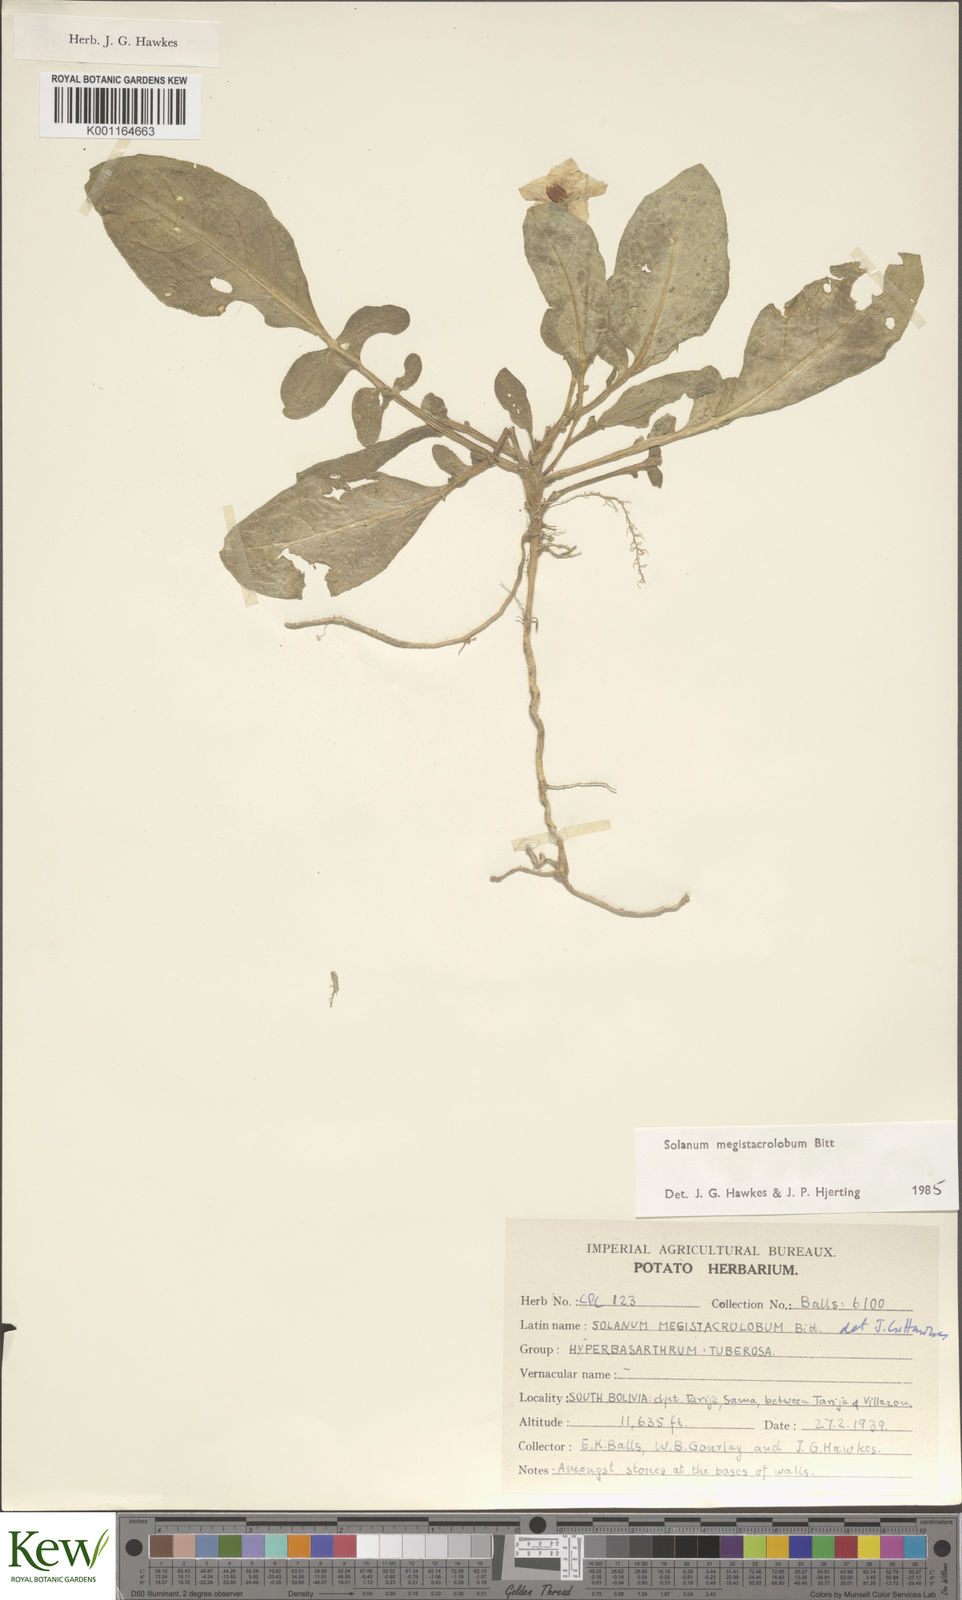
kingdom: Plantae
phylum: Tracheophyta
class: Magnoliopsida
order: Solanales
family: Solanaceae
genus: Solanum
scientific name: Solanum boliviense
